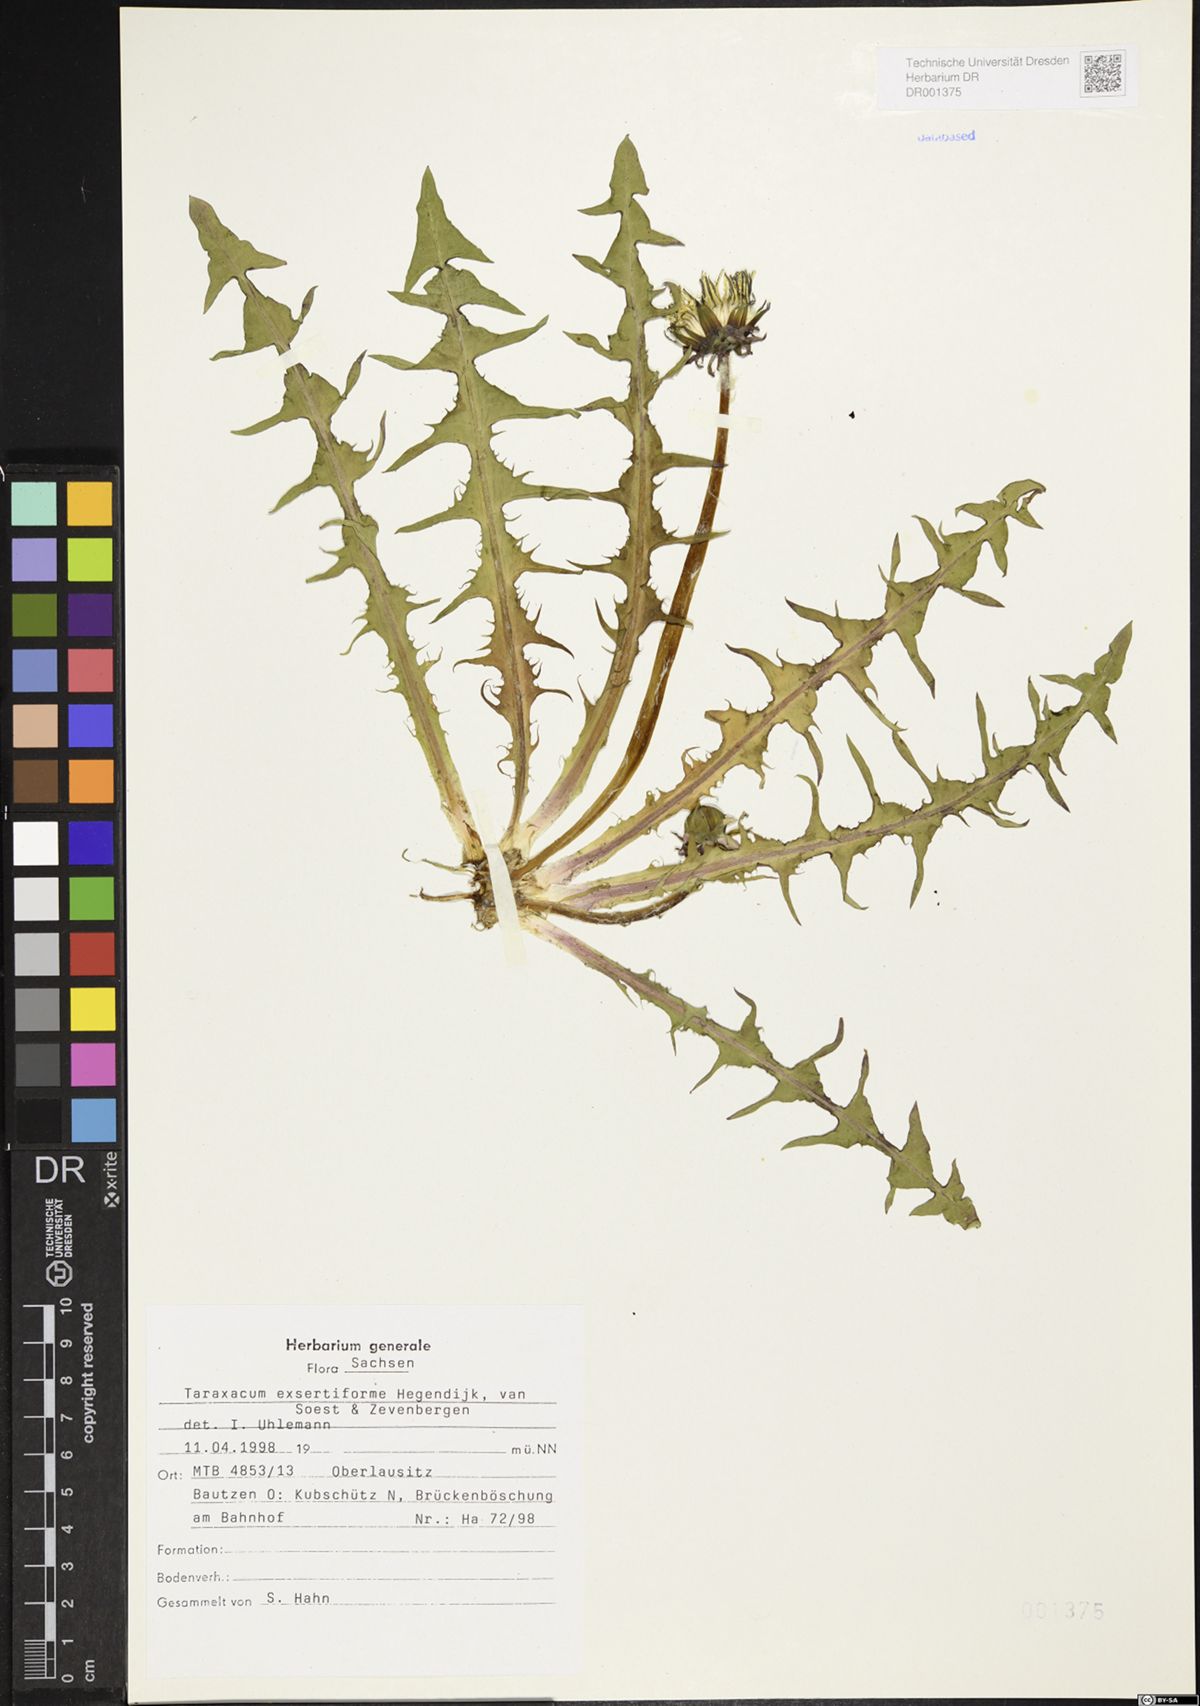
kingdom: Plantae
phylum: Tracheophyta
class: Magnoliopsida
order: Asterales
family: Asteraceae
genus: Taraxacum
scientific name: Taraxacum exsertiforme
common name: Erect-bracted dandelion
